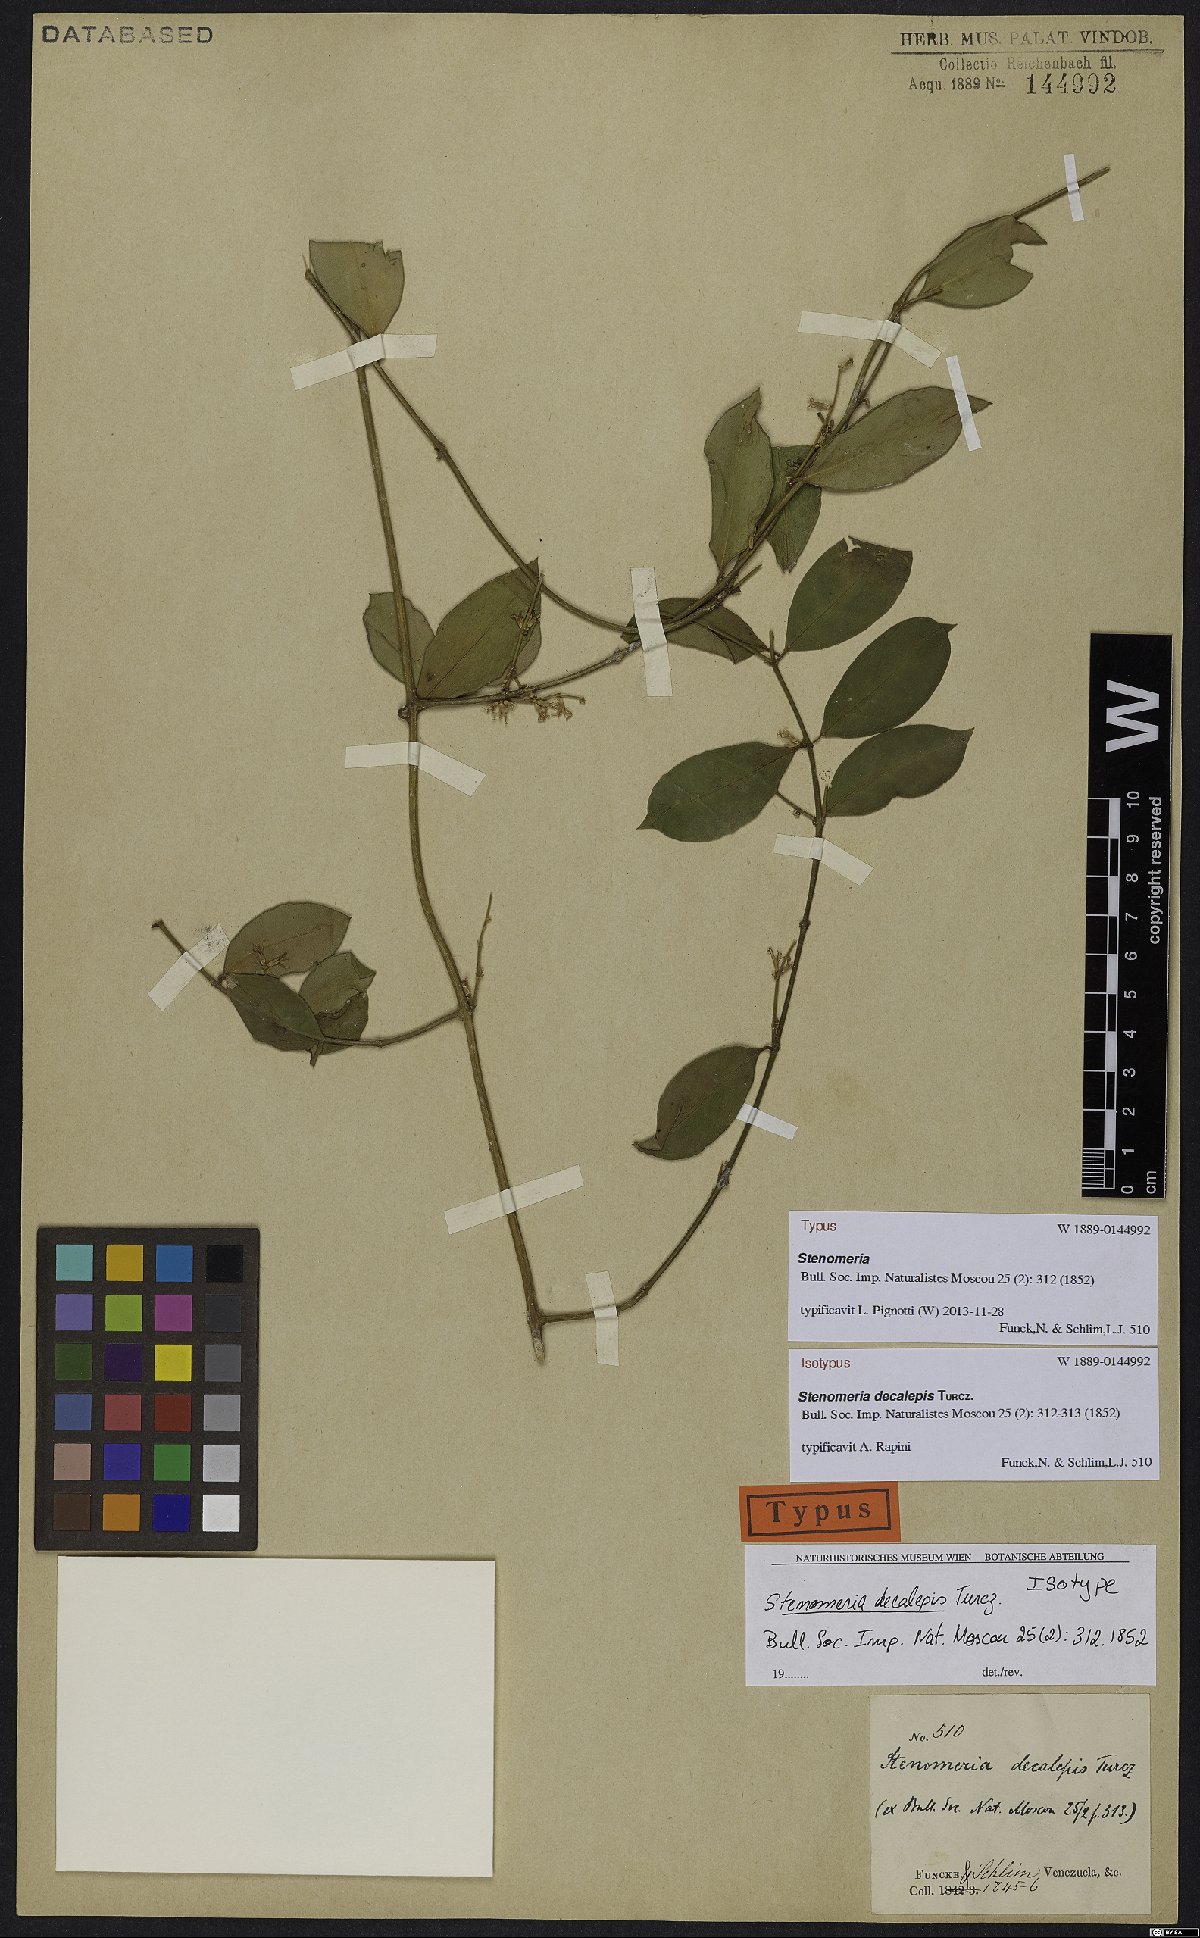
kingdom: Plantae
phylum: Tracheophyta
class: Magnoliopsida
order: Gentianales
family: Apocynaceae
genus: Tassadia
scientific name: Tassadia decalepis
